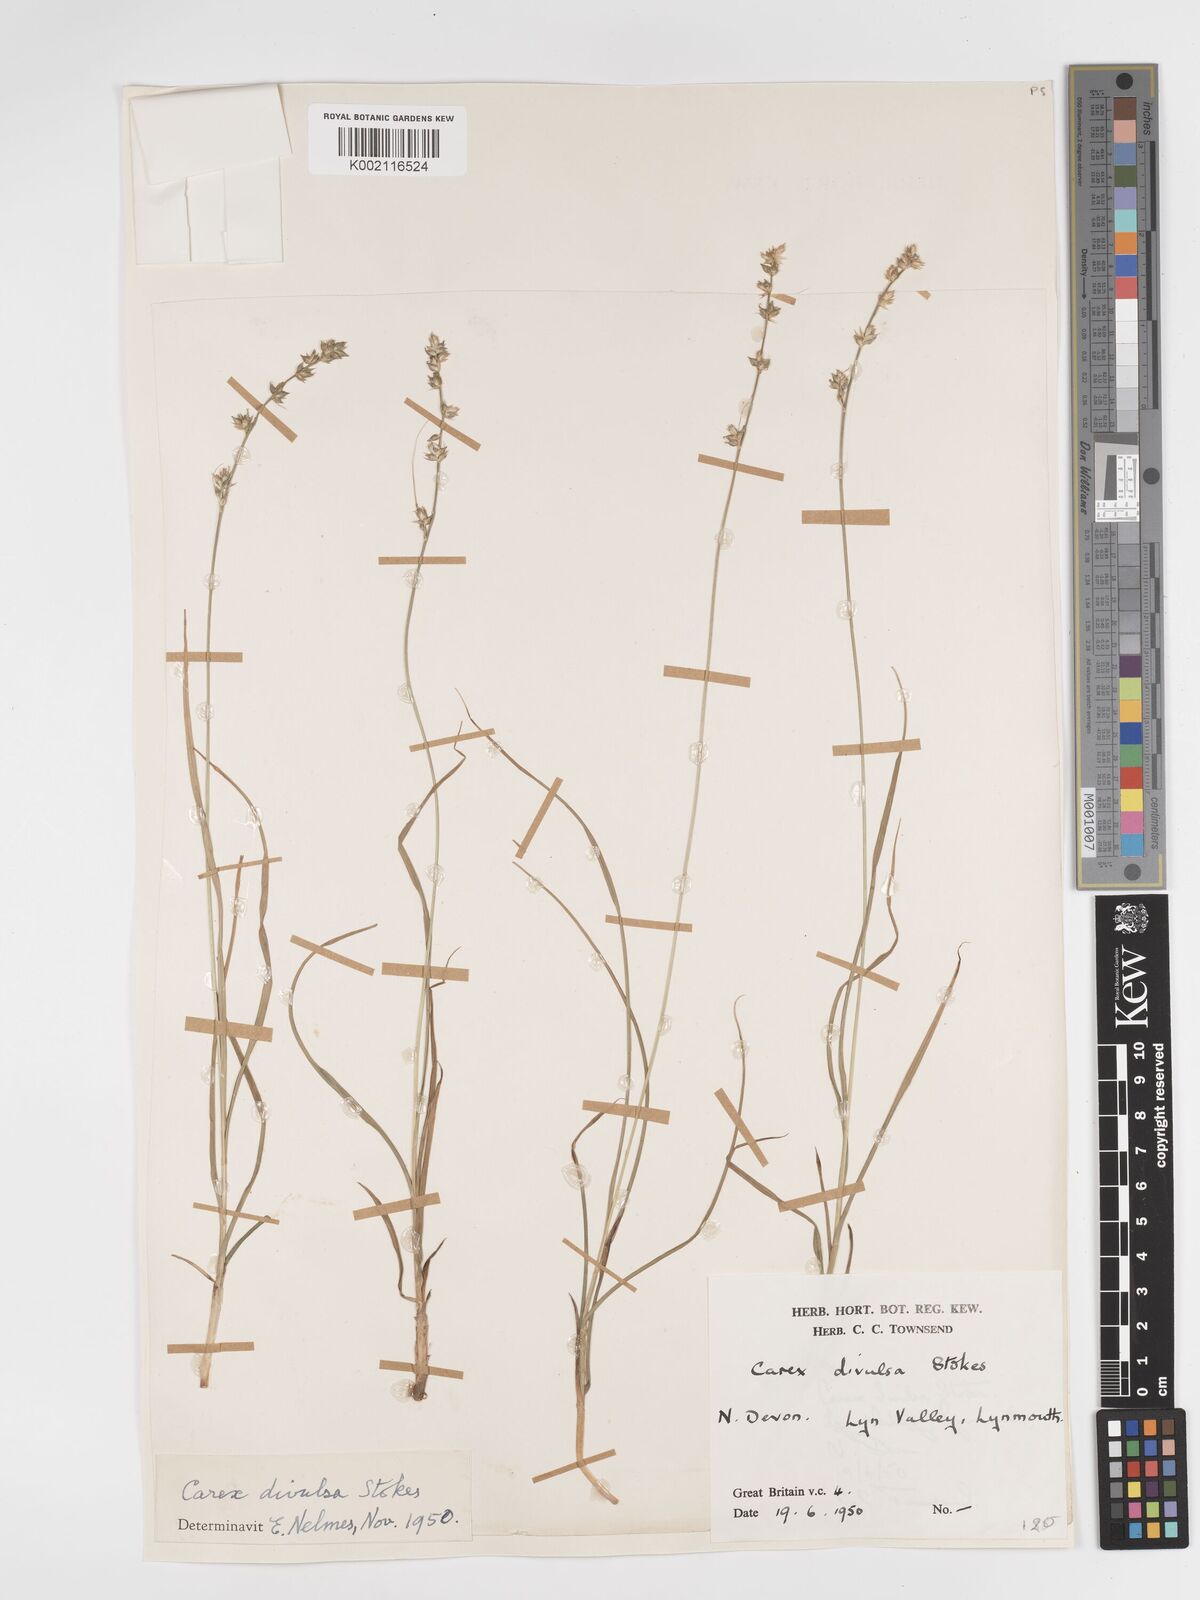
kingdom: Plantae
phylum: Tracheophyta
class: Liliopsida
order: Poales
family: Cyperaceae
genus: Carex
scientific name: Carex divulsa
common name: Grassland sedge
